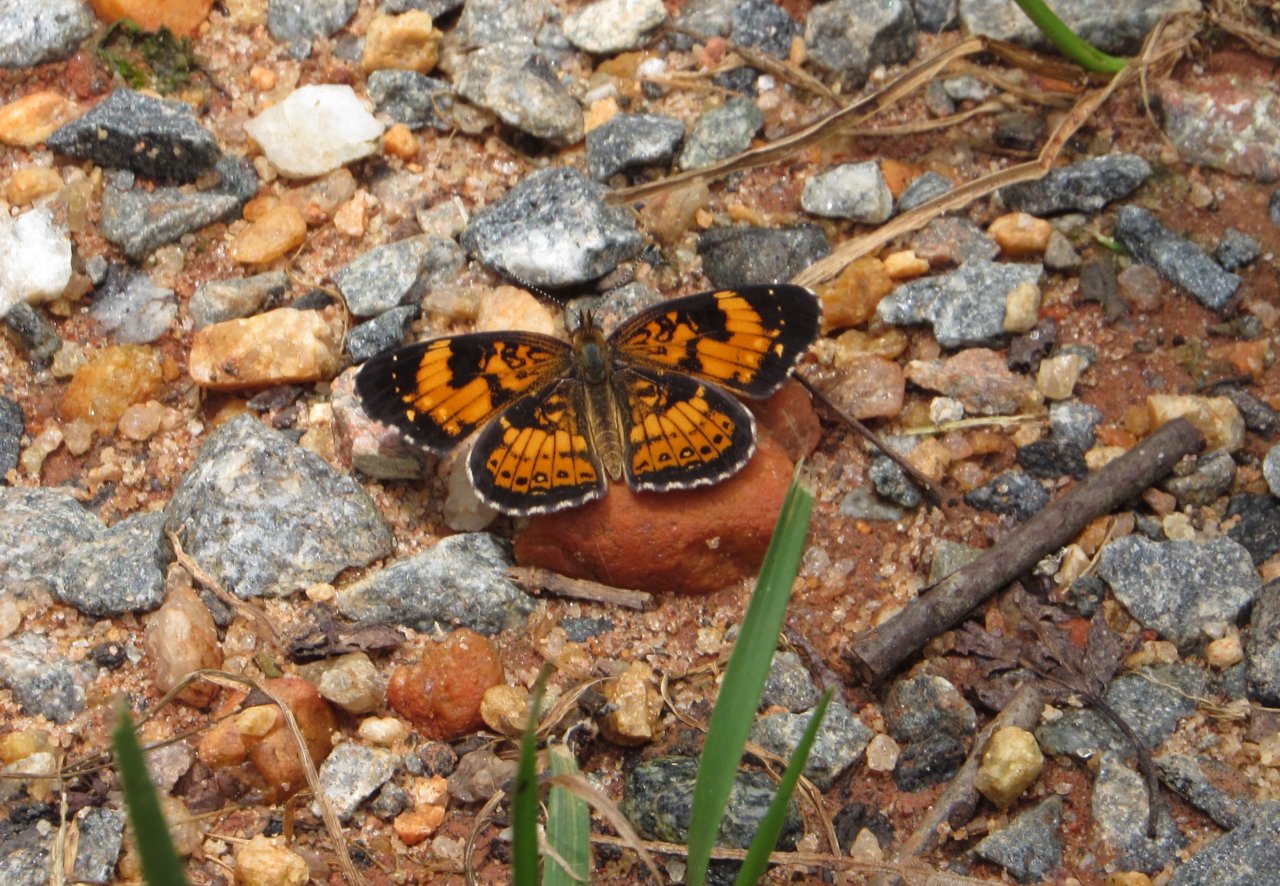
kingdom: Animalia
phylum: Arthropoda
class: Insecta
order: Lepidoptera
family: Nymphalidae
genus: Chlosyne
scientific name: Chlosyne nycteis
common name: Silvery Checkerspot
